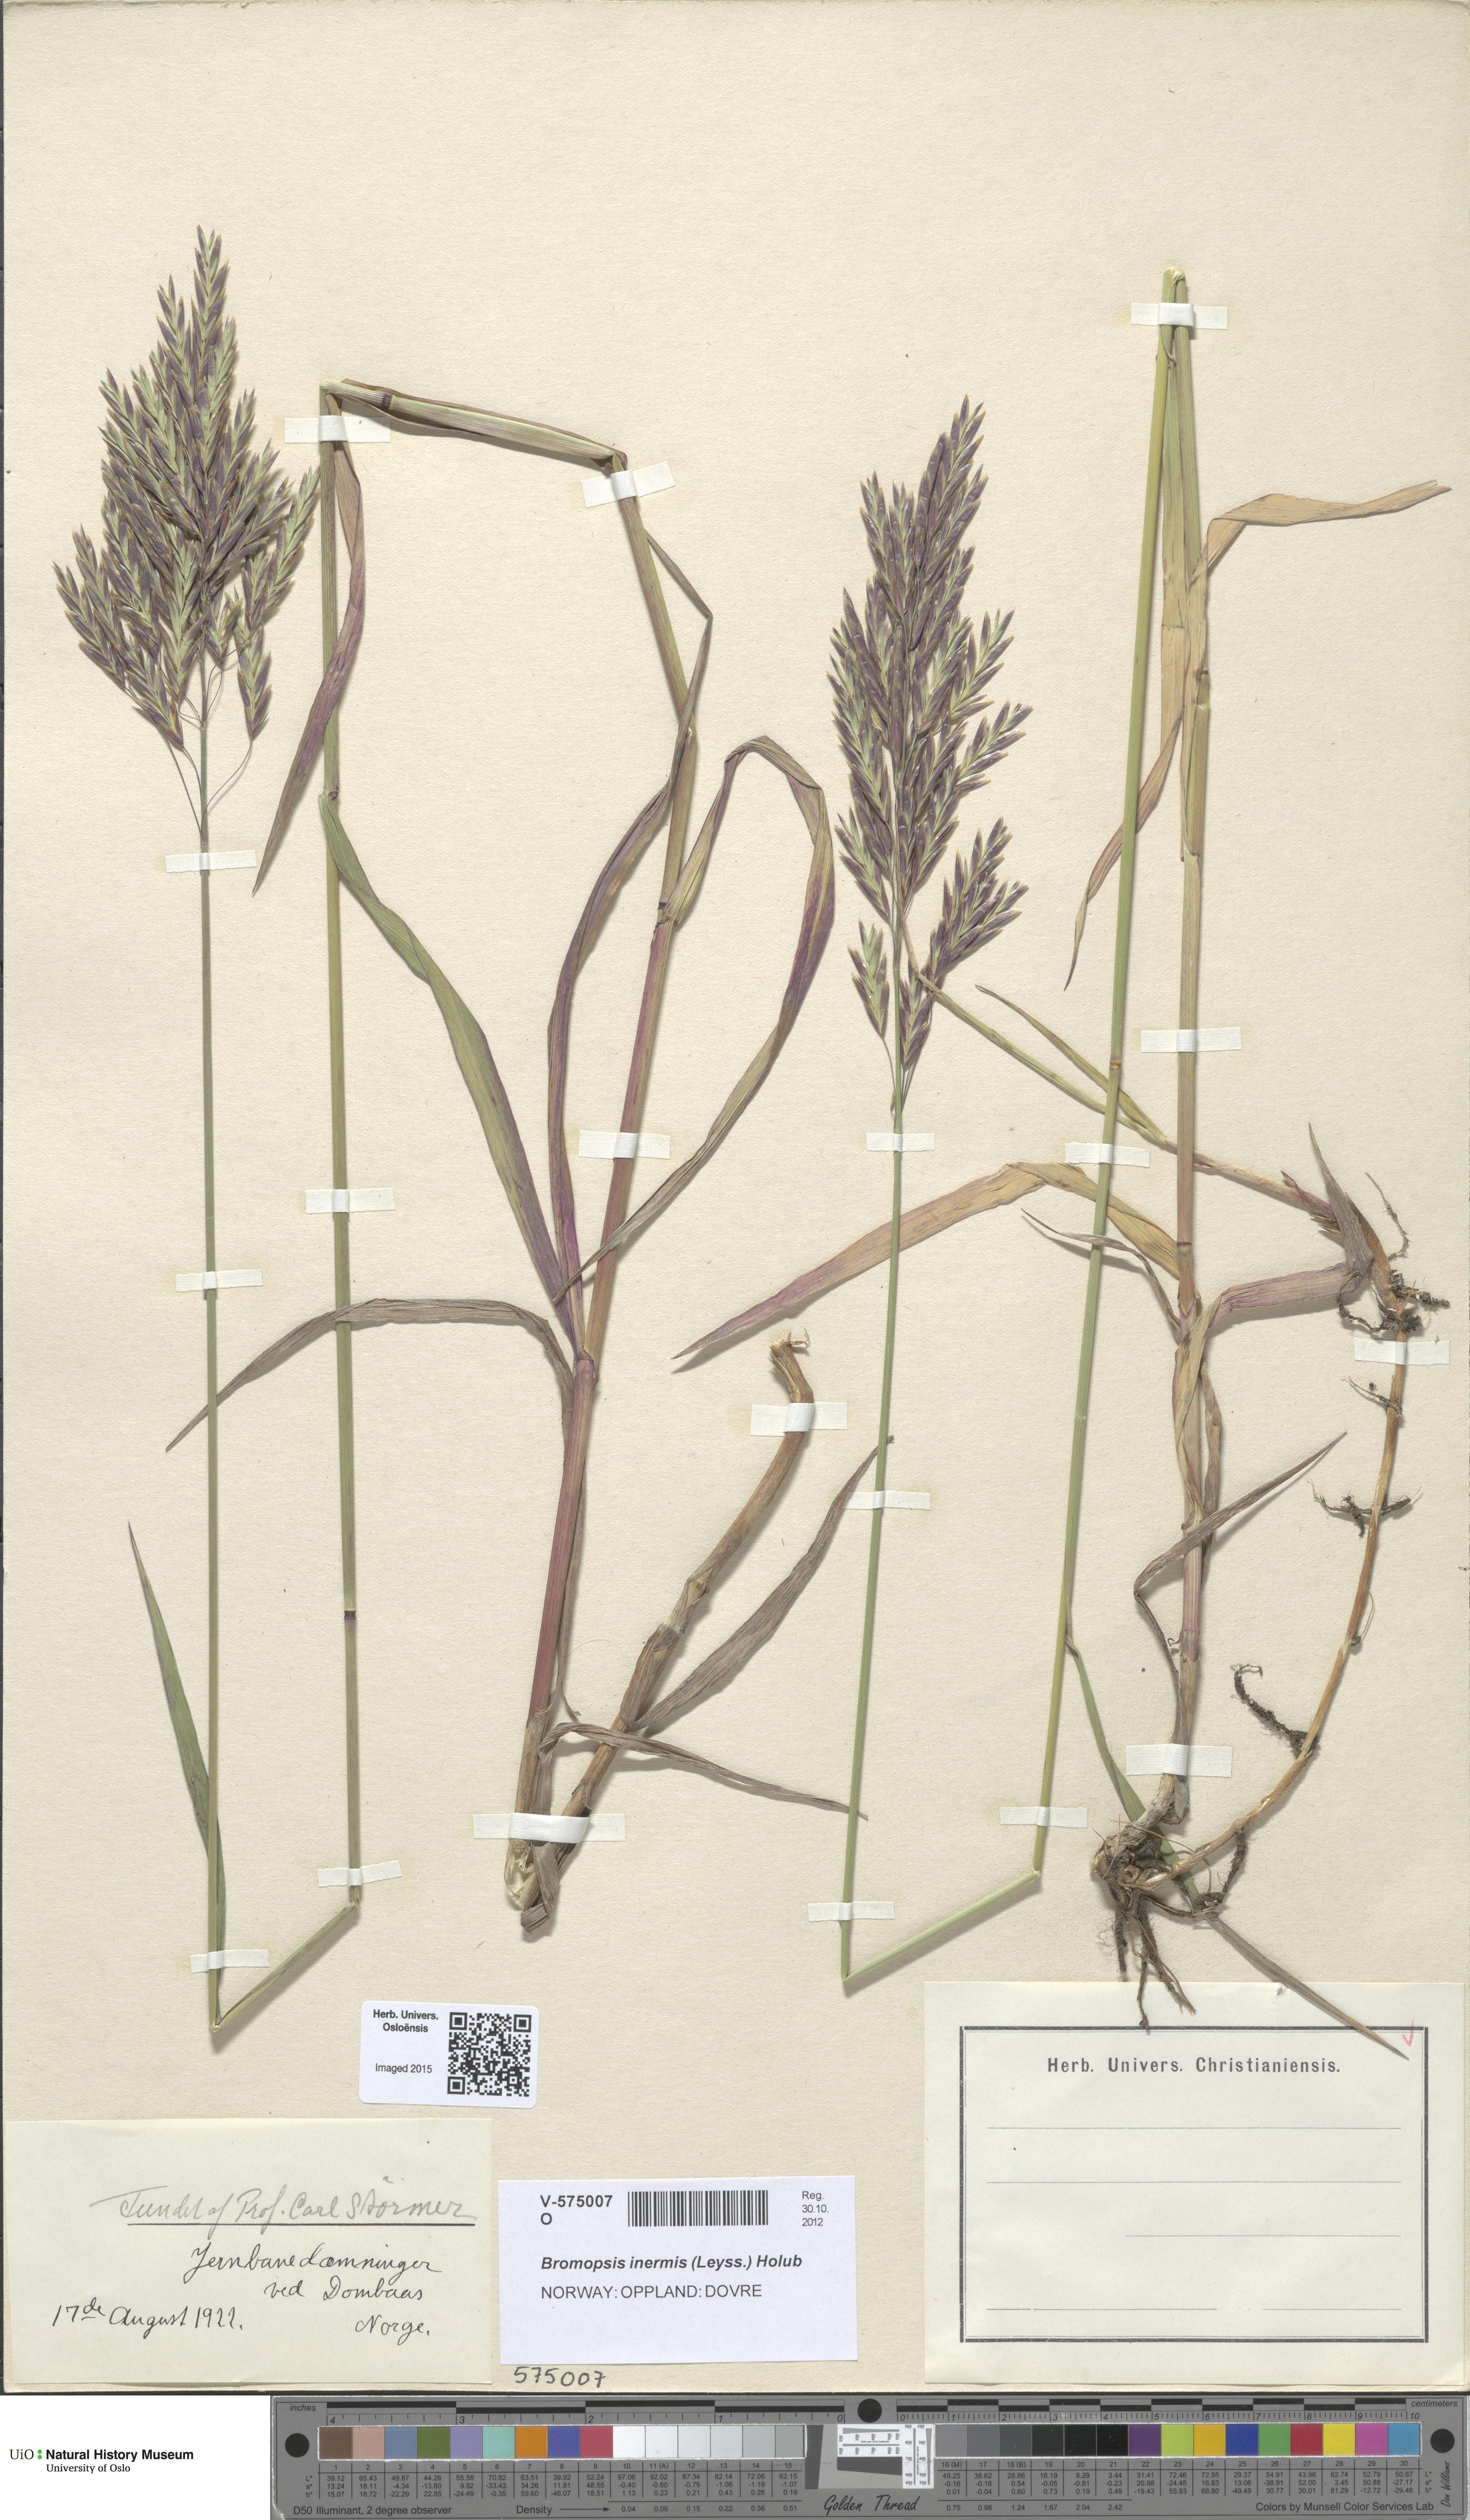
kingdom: Plantae
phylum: Tracheophyta
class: Liliopsida
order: Poales
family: Poaceae
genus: Bromus
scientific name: Bromus inermis
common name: Smooth brome
